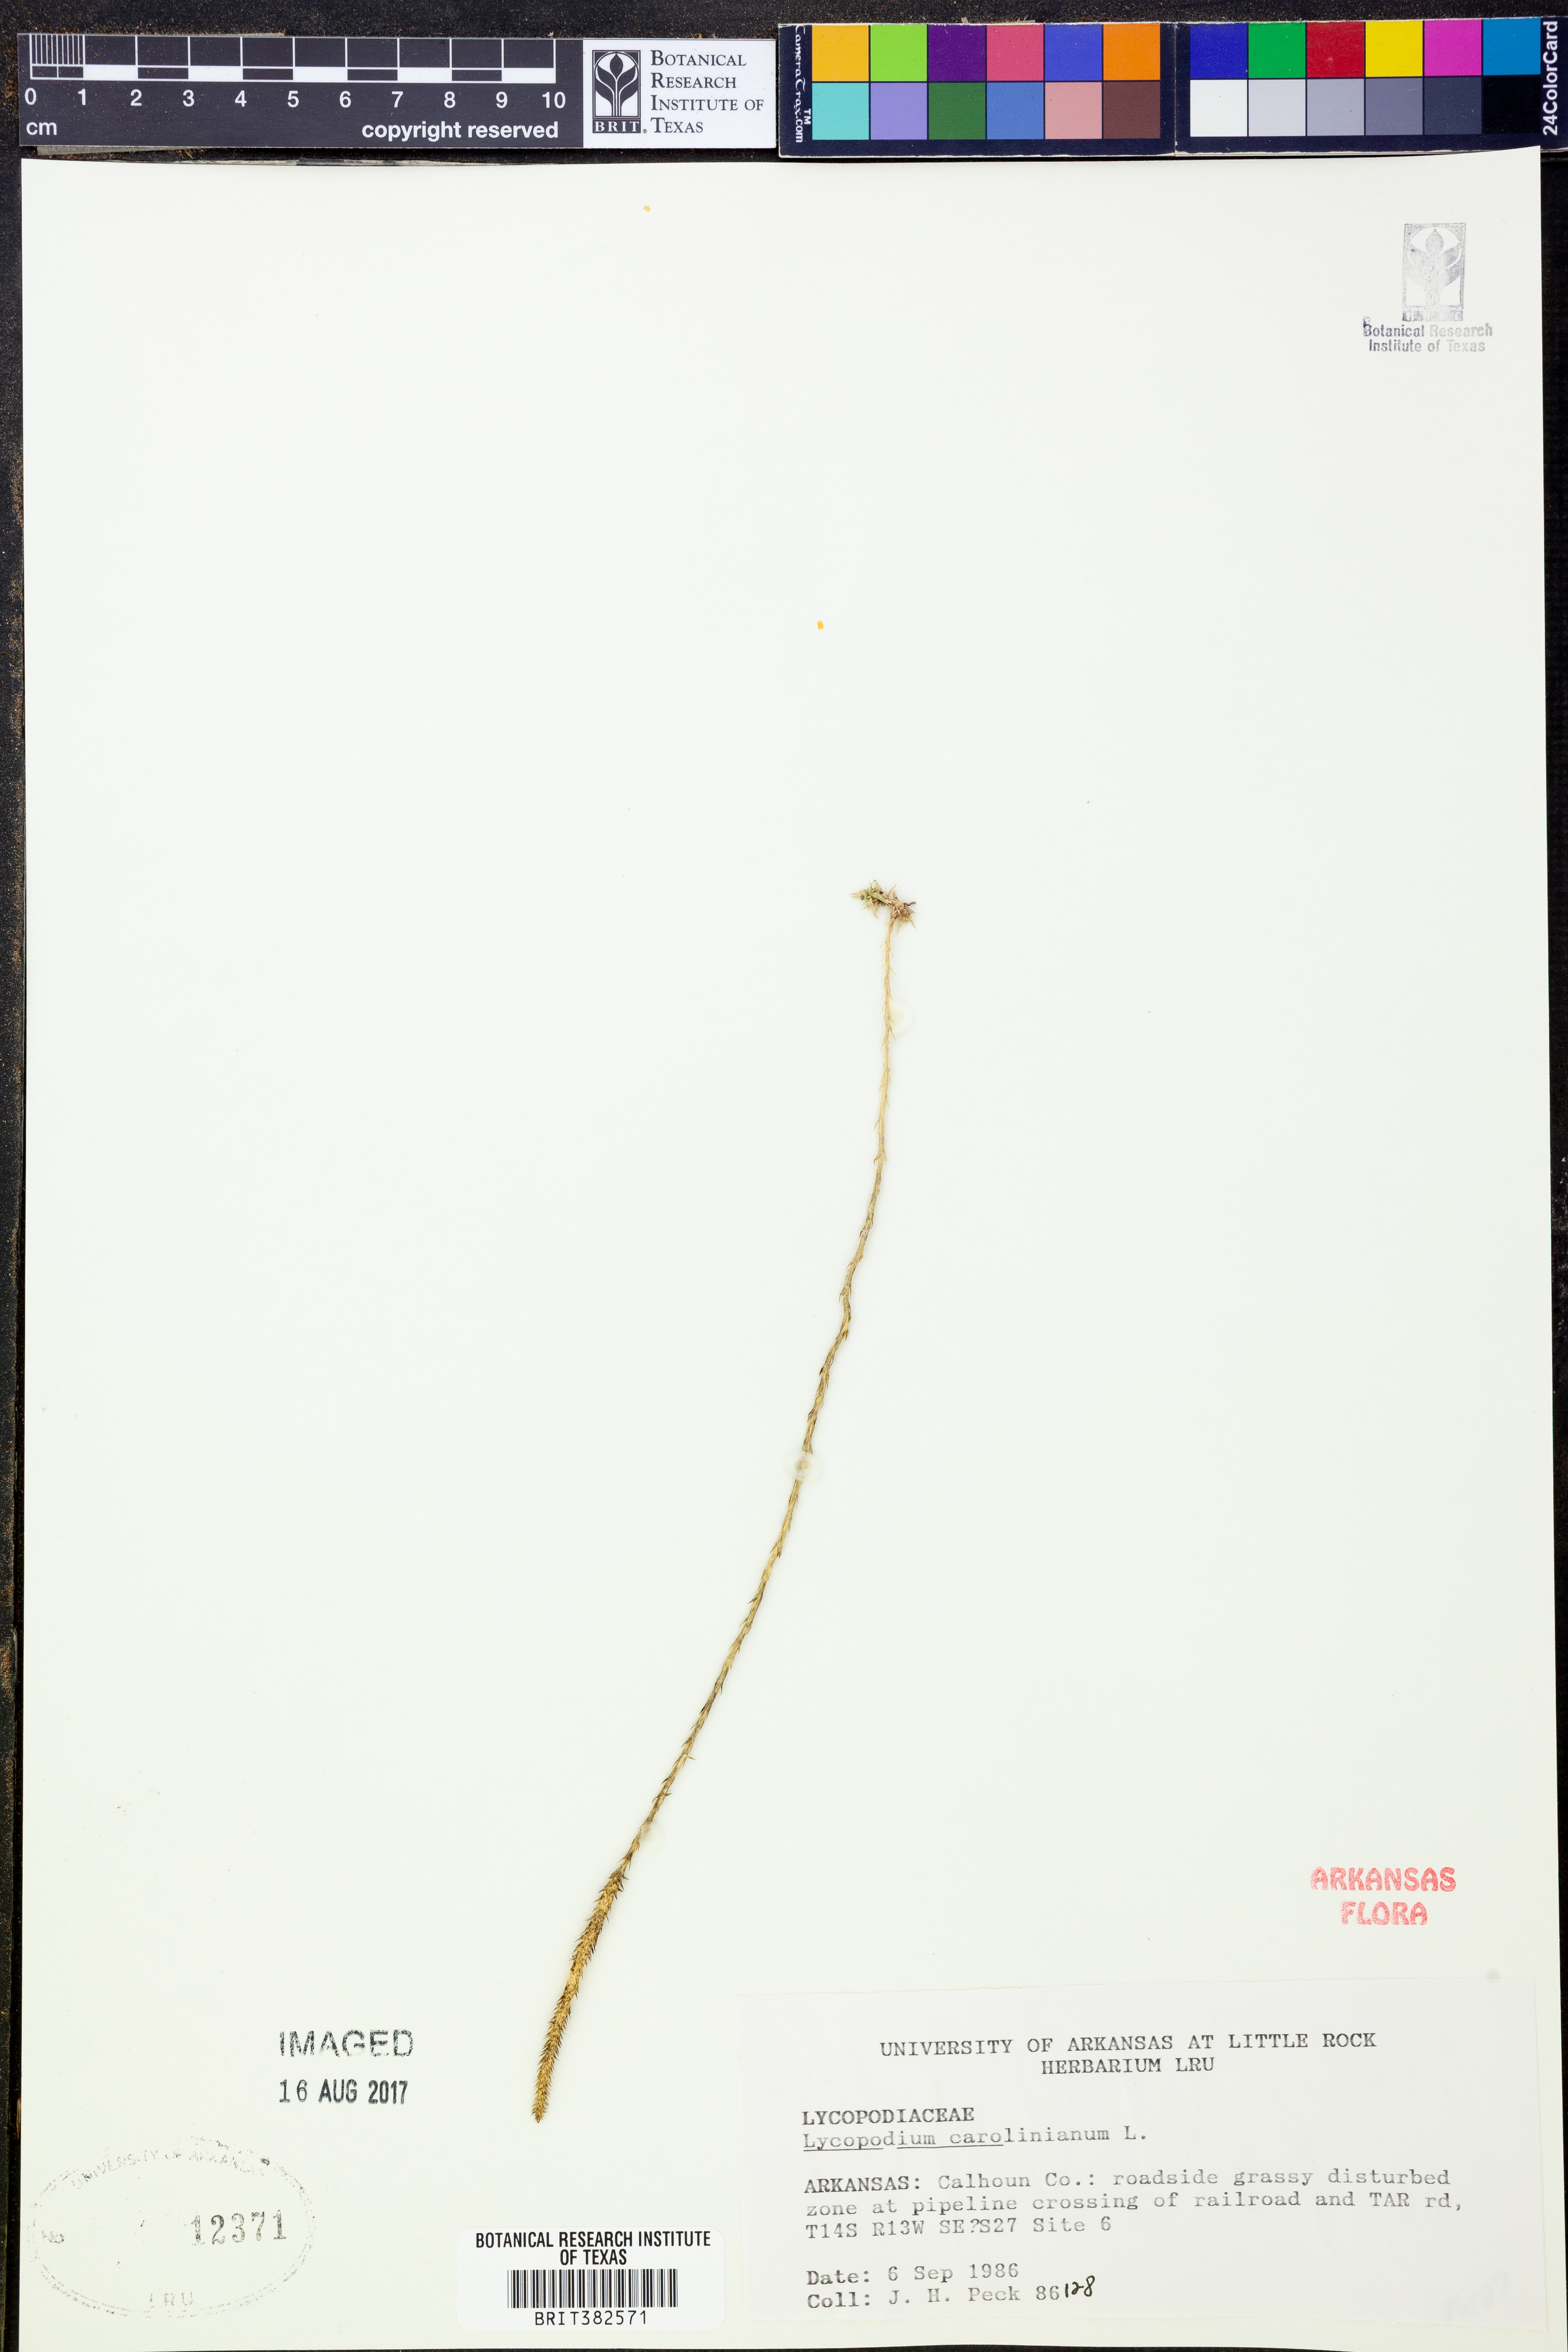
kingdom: Plantae
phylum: Tracheophyta
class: Lycopodiopsida
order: Lycopodiales
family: Lycopodiaceae
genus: Pseudolycopodiella
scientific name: Pseudolycopodiella caroliniana
